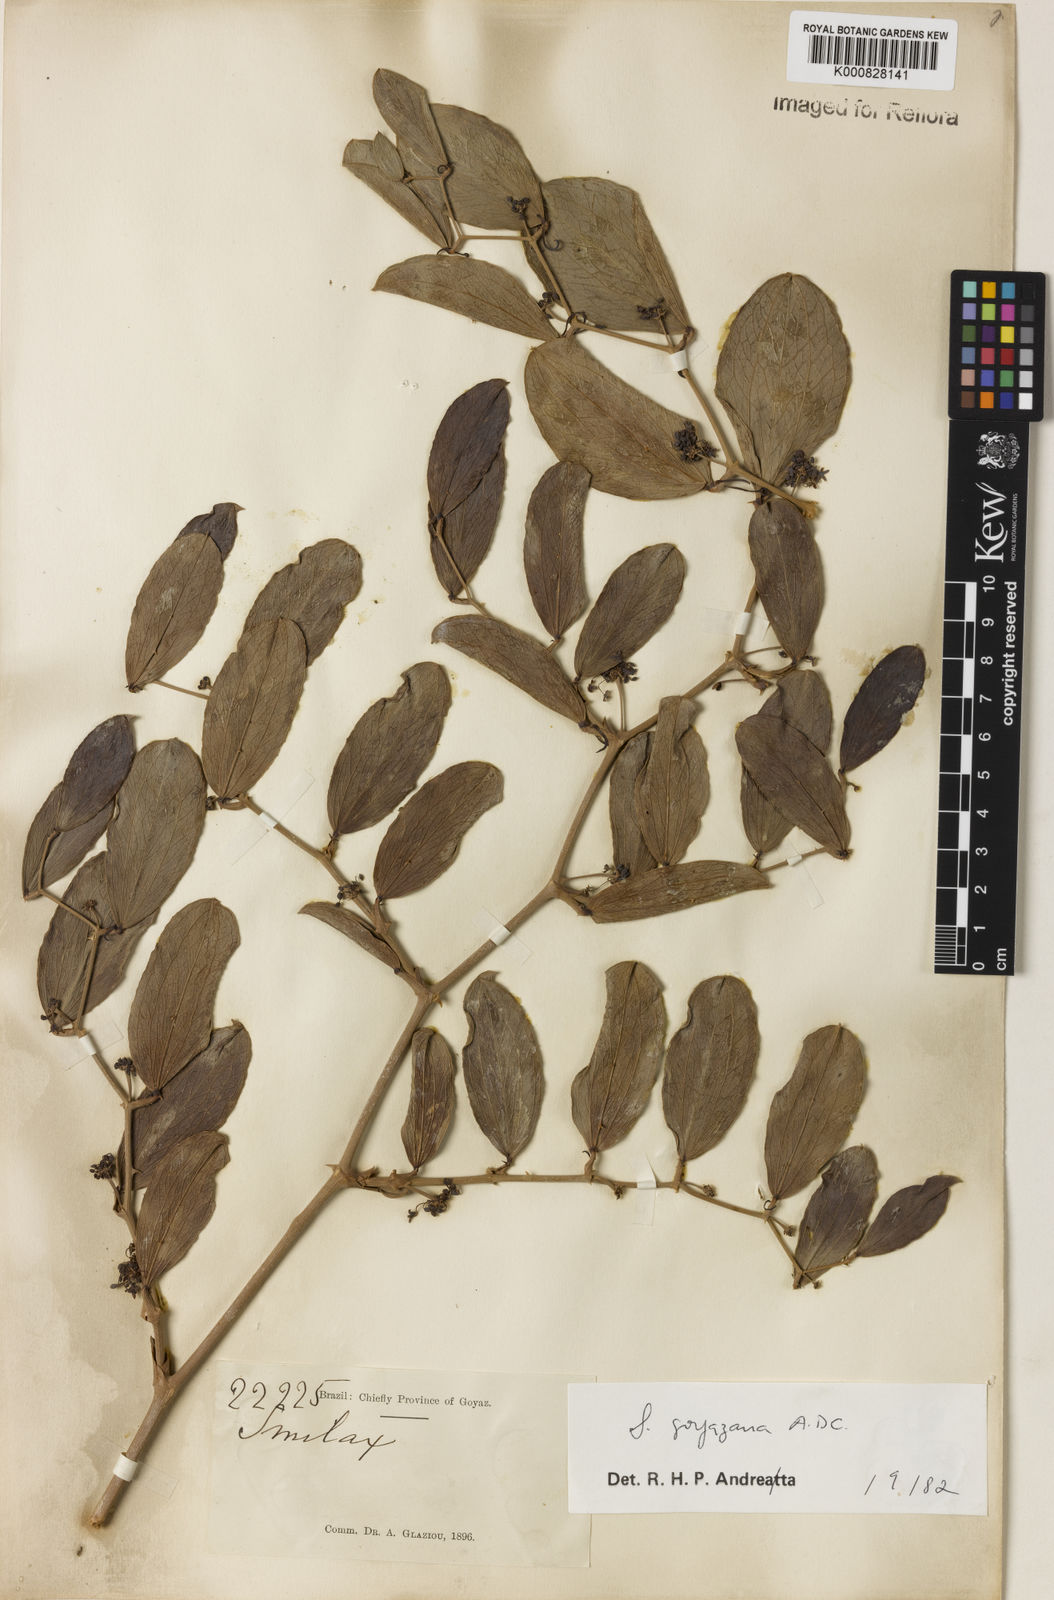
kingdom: Plantae
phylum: Tracheophyta
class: Liliopsida
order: Liliales
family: Smilacaceae
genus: Smilax
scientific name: Smilax goyazana
